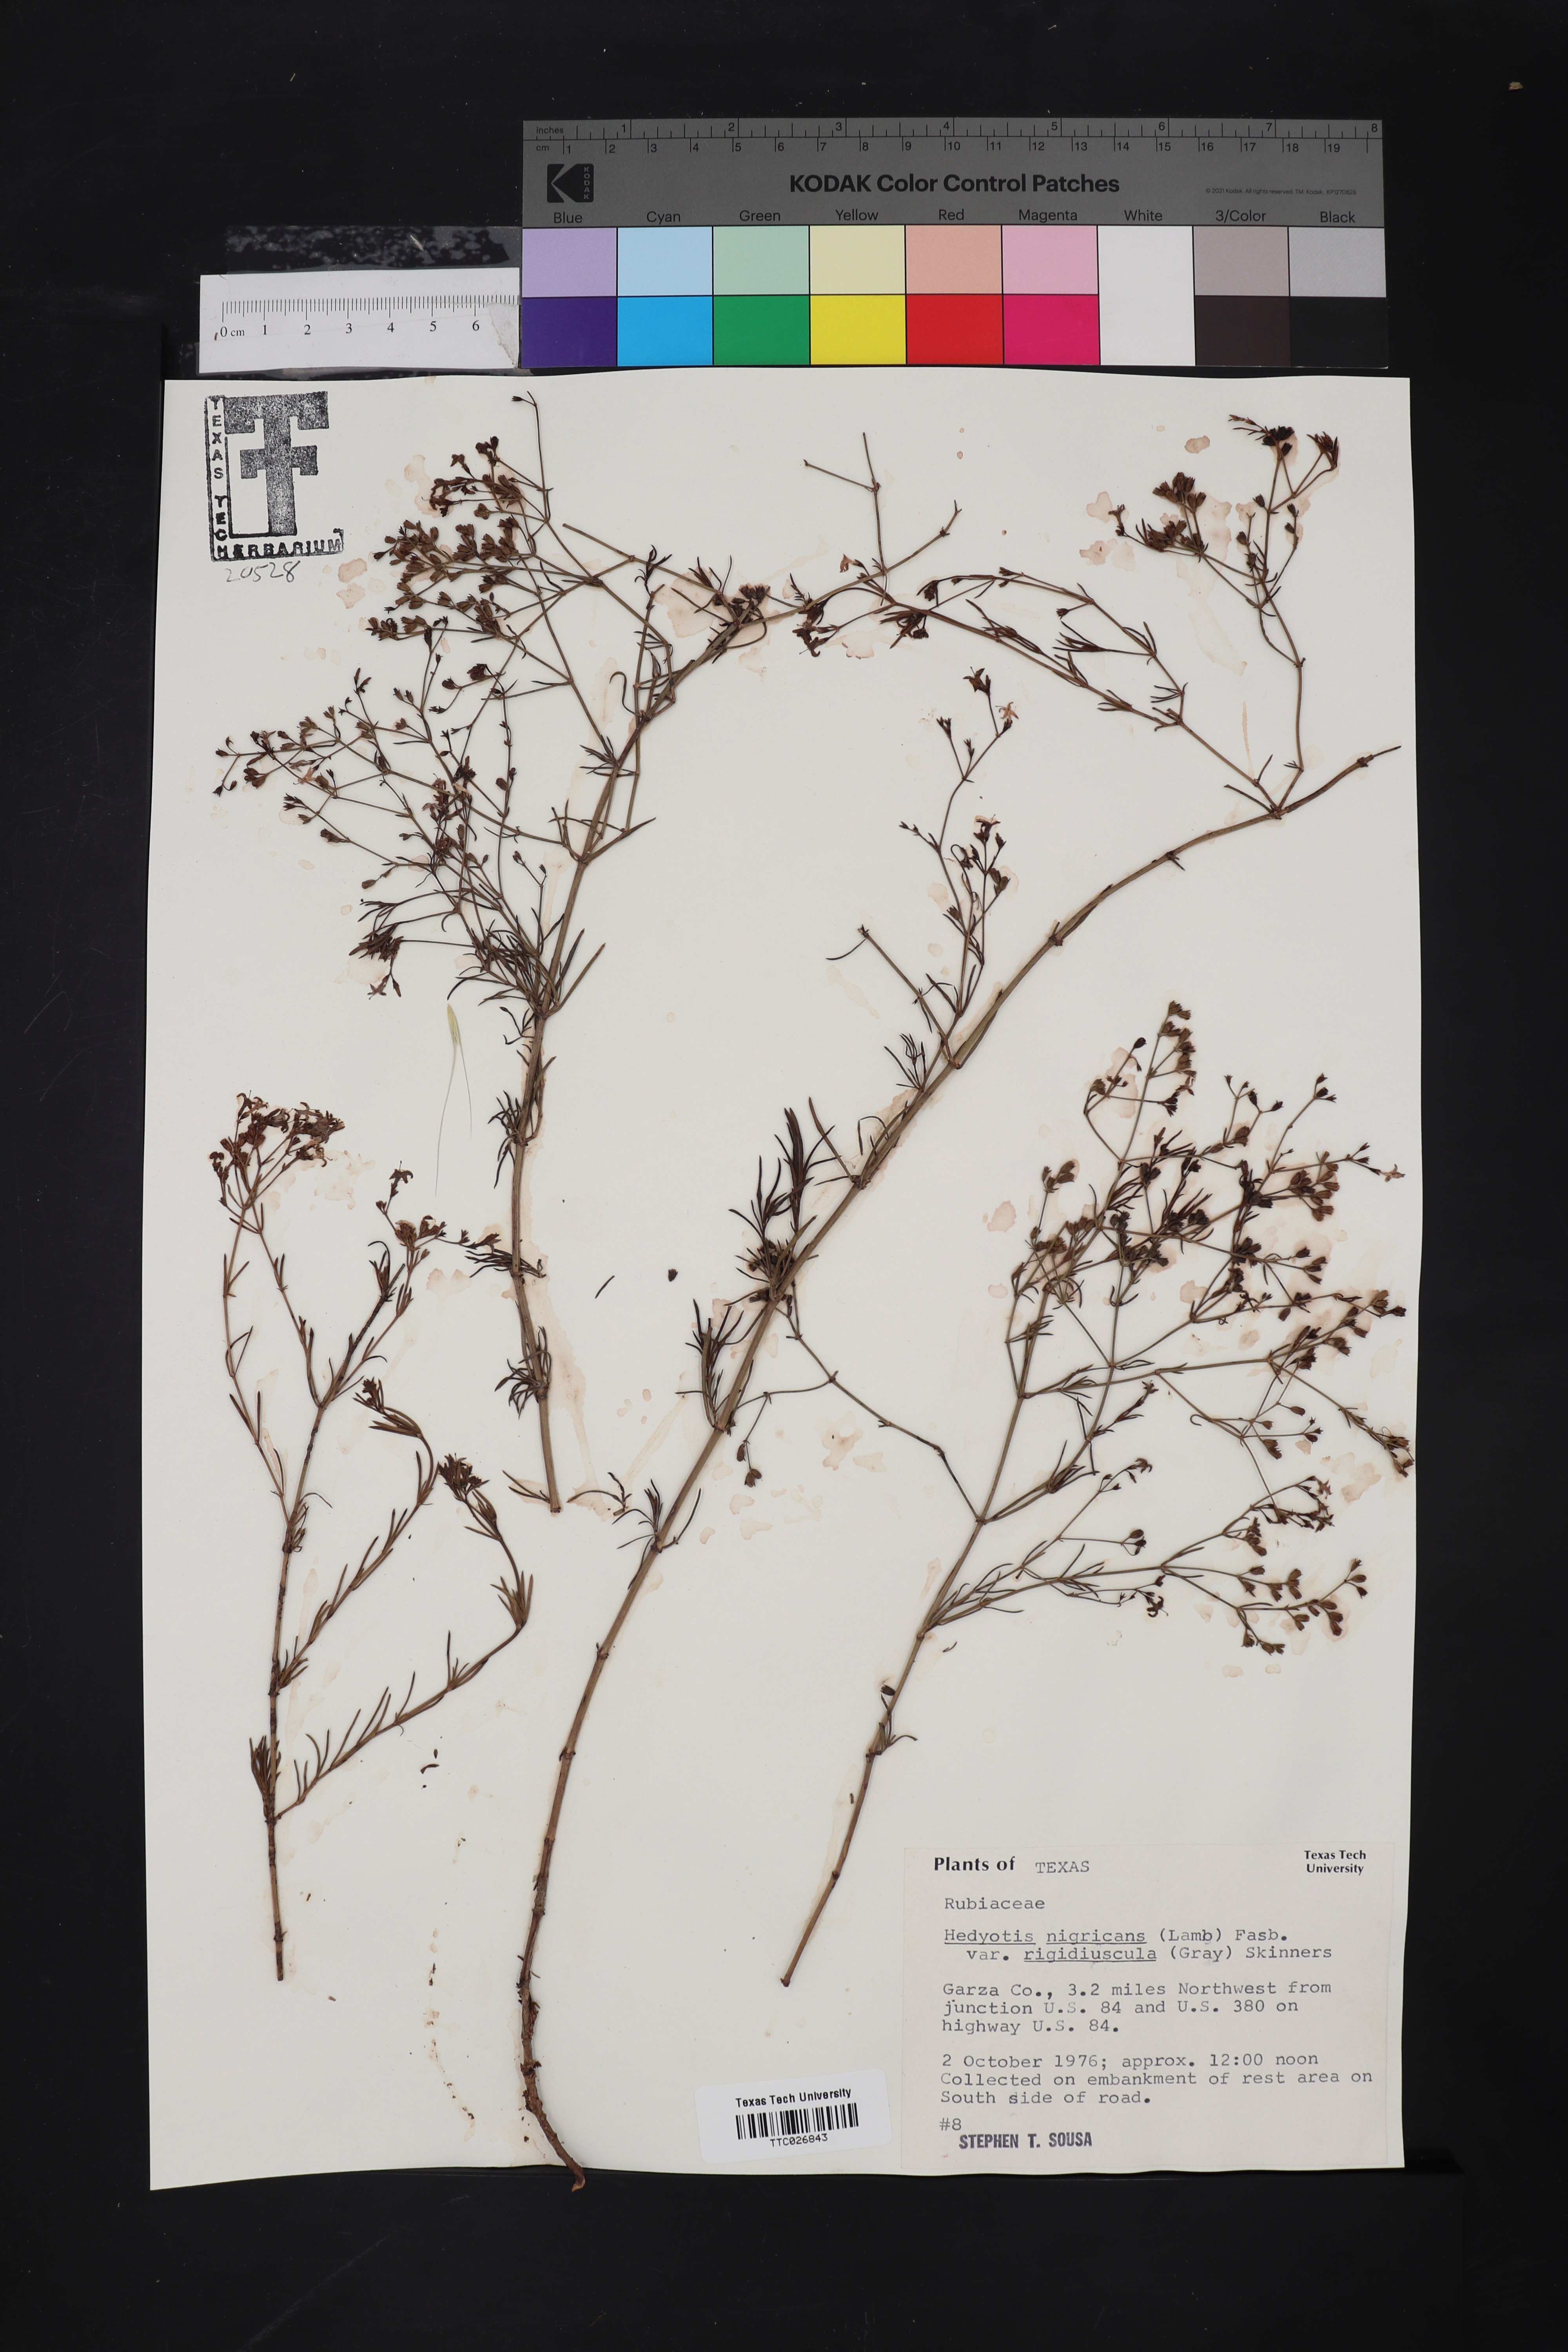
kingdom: Plantae
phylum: Tracheophyta
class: Magnoliopsida
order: Gentianales
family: Rubiaceae
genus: Houstonia
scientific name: Houstonia purpurea
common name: Summer bluet
